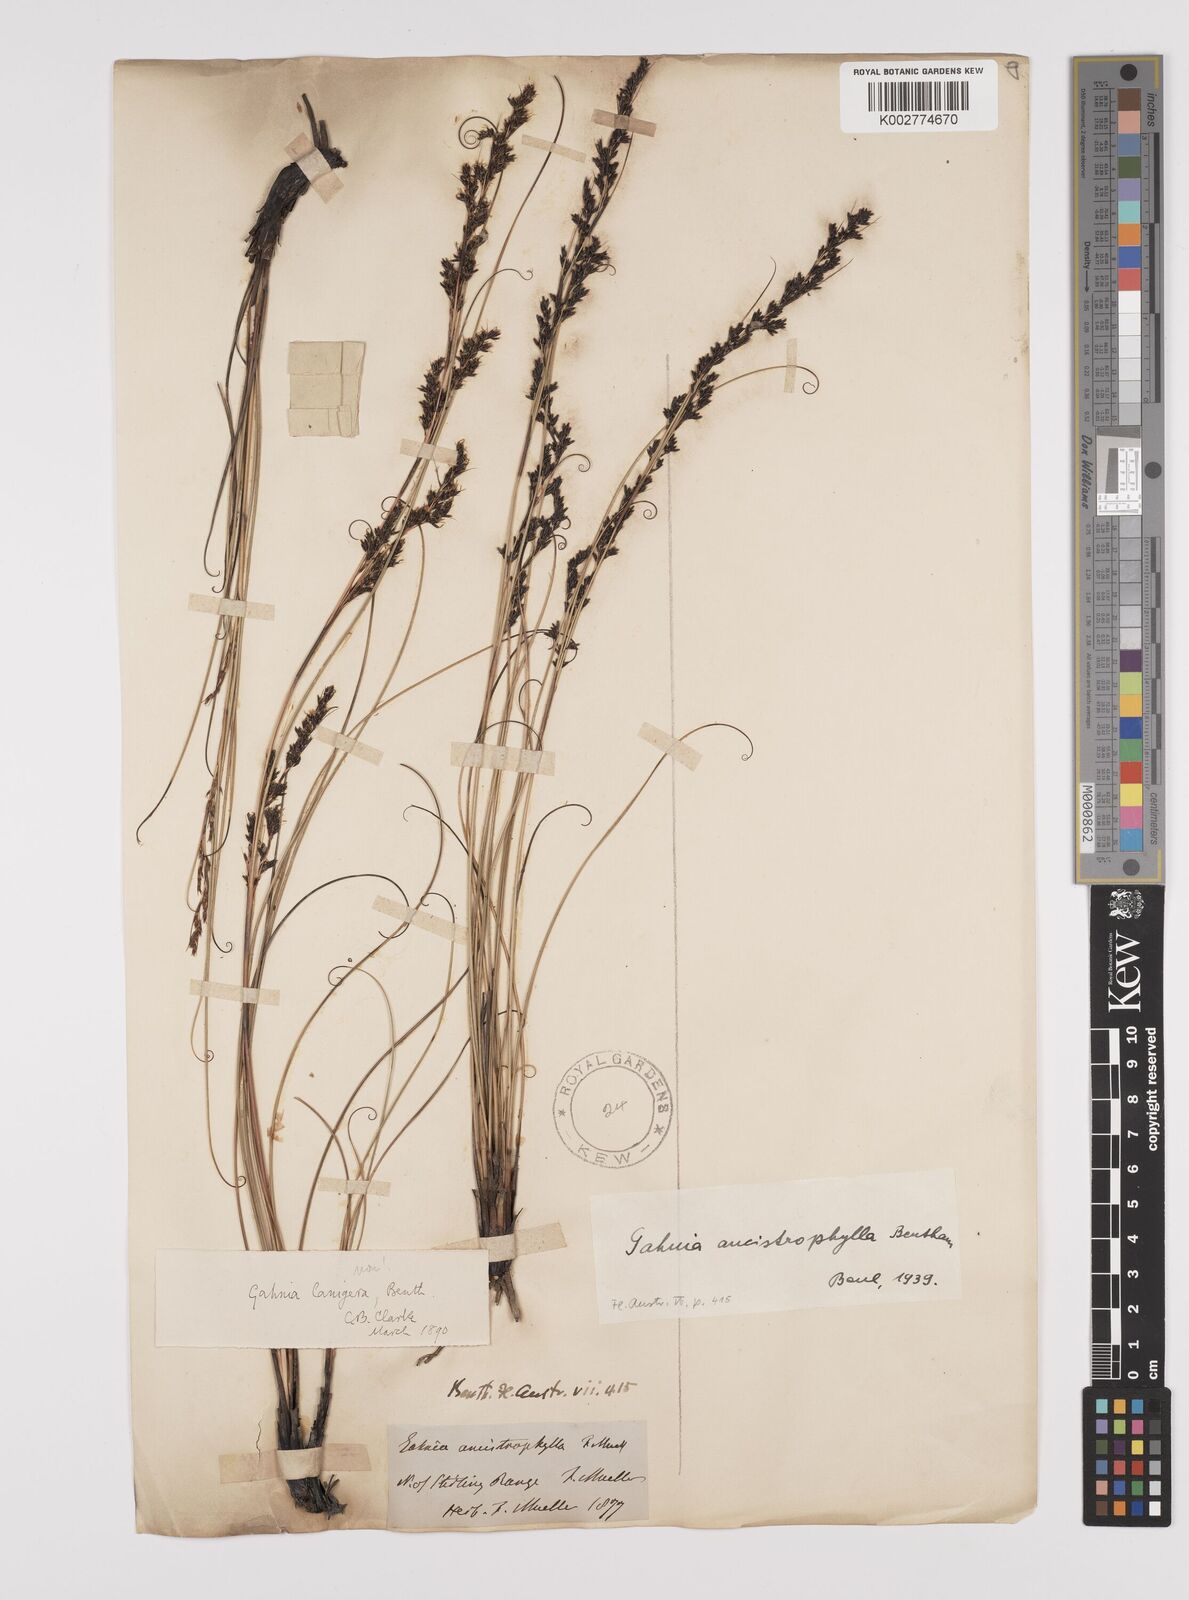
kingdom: Plantae
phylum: Tracheophyta
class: Liliopsida
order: Poales
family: Cyperaceae
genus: Gahnia
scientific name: Gahnia ancistrophylla
